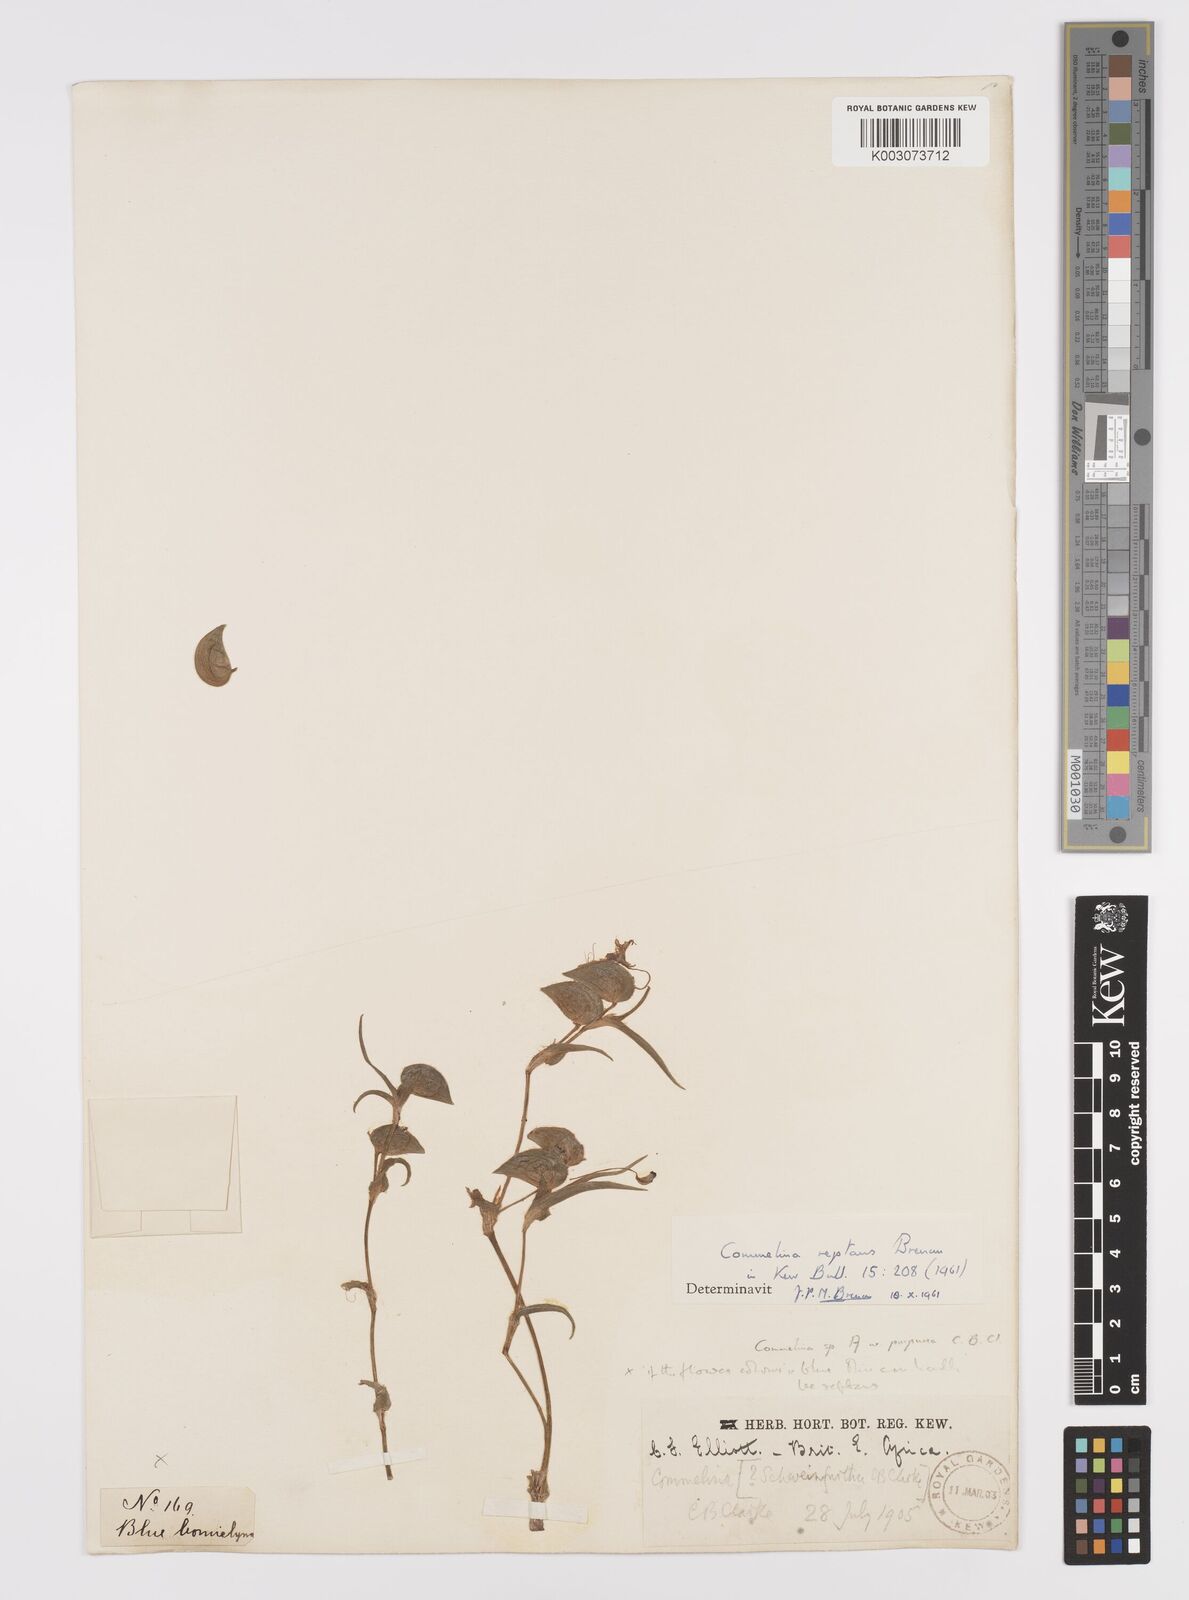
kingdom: Plantae
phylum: Tracheophyta
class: Liliopsida
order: Commelinales
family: Commelinaceae
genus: Commelina
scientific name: Commelina reptans
